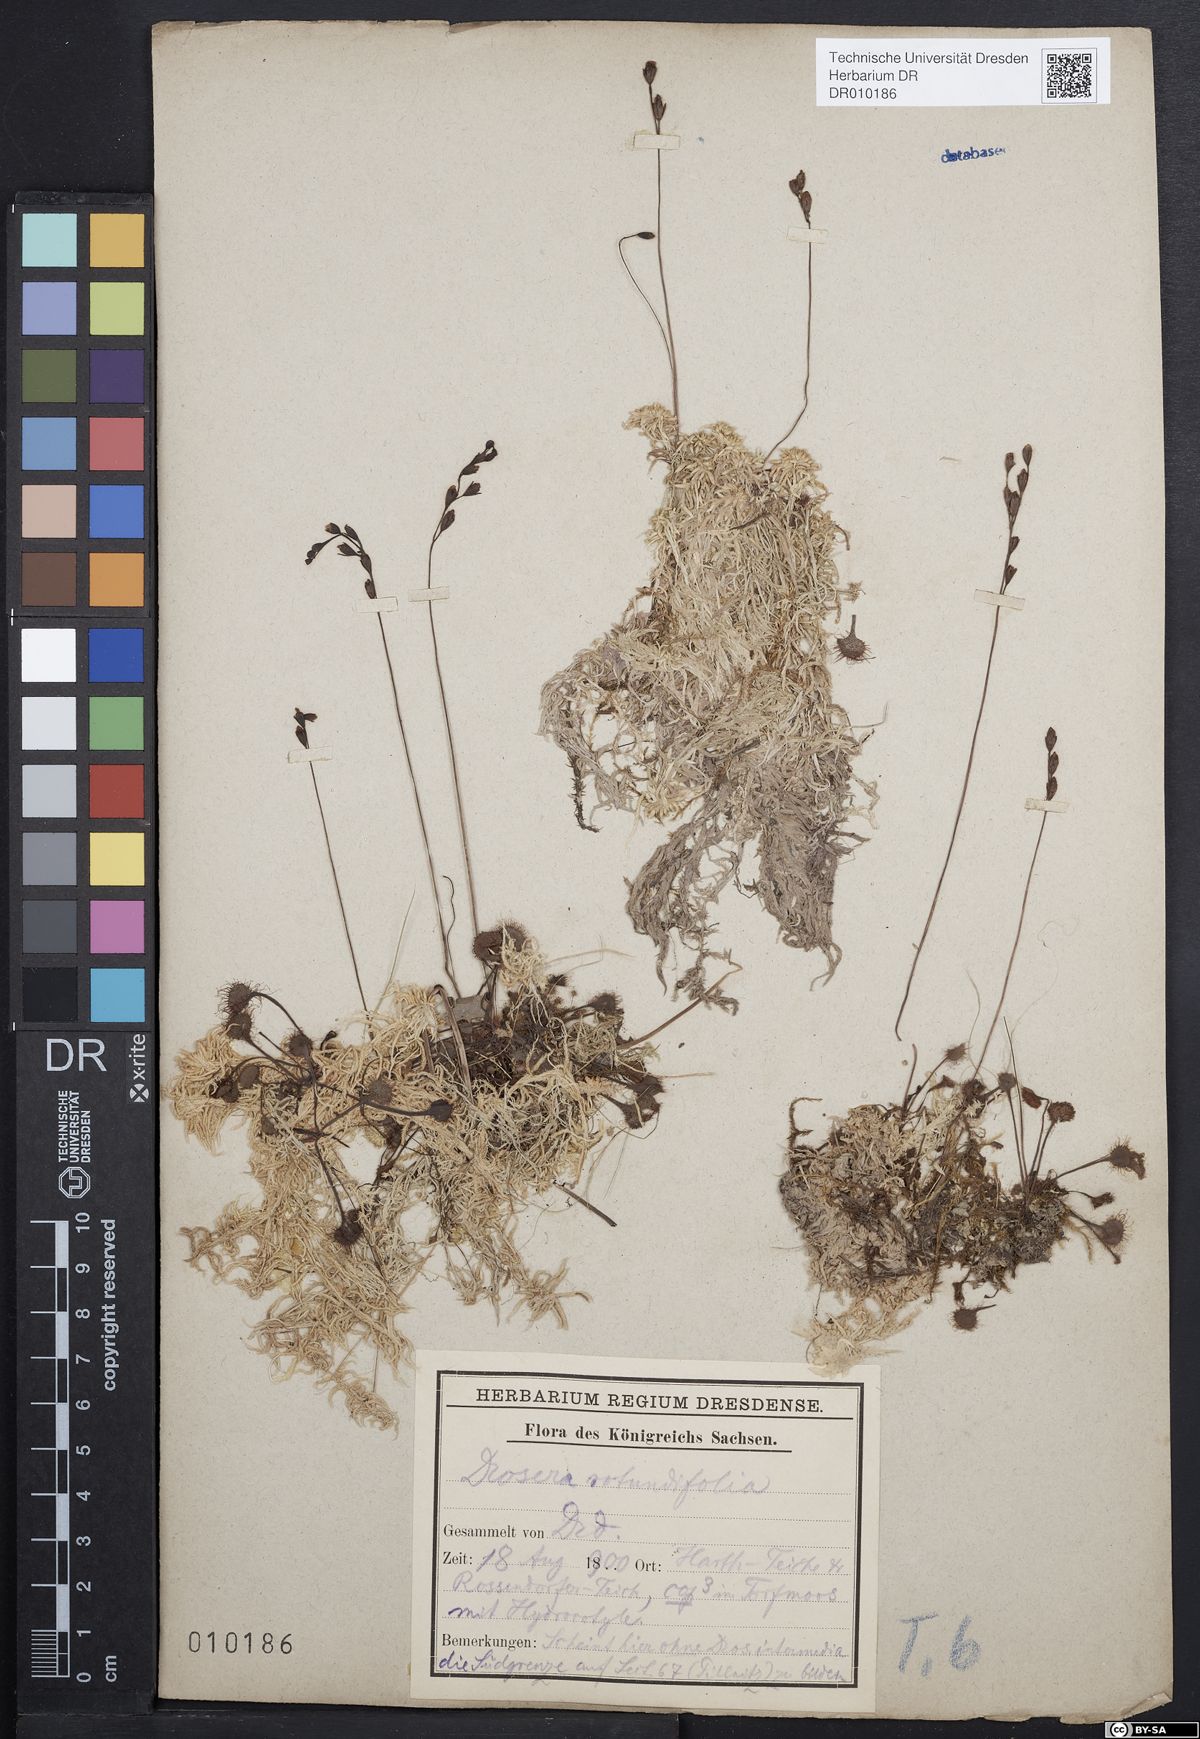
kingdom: Plantae
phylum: Tracheophyta
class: Magnoliopsida
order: Caryophyllales
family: Droseraceae
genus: Drosera
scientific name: Drosera rotundifolia
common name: Round-leaved sundew
